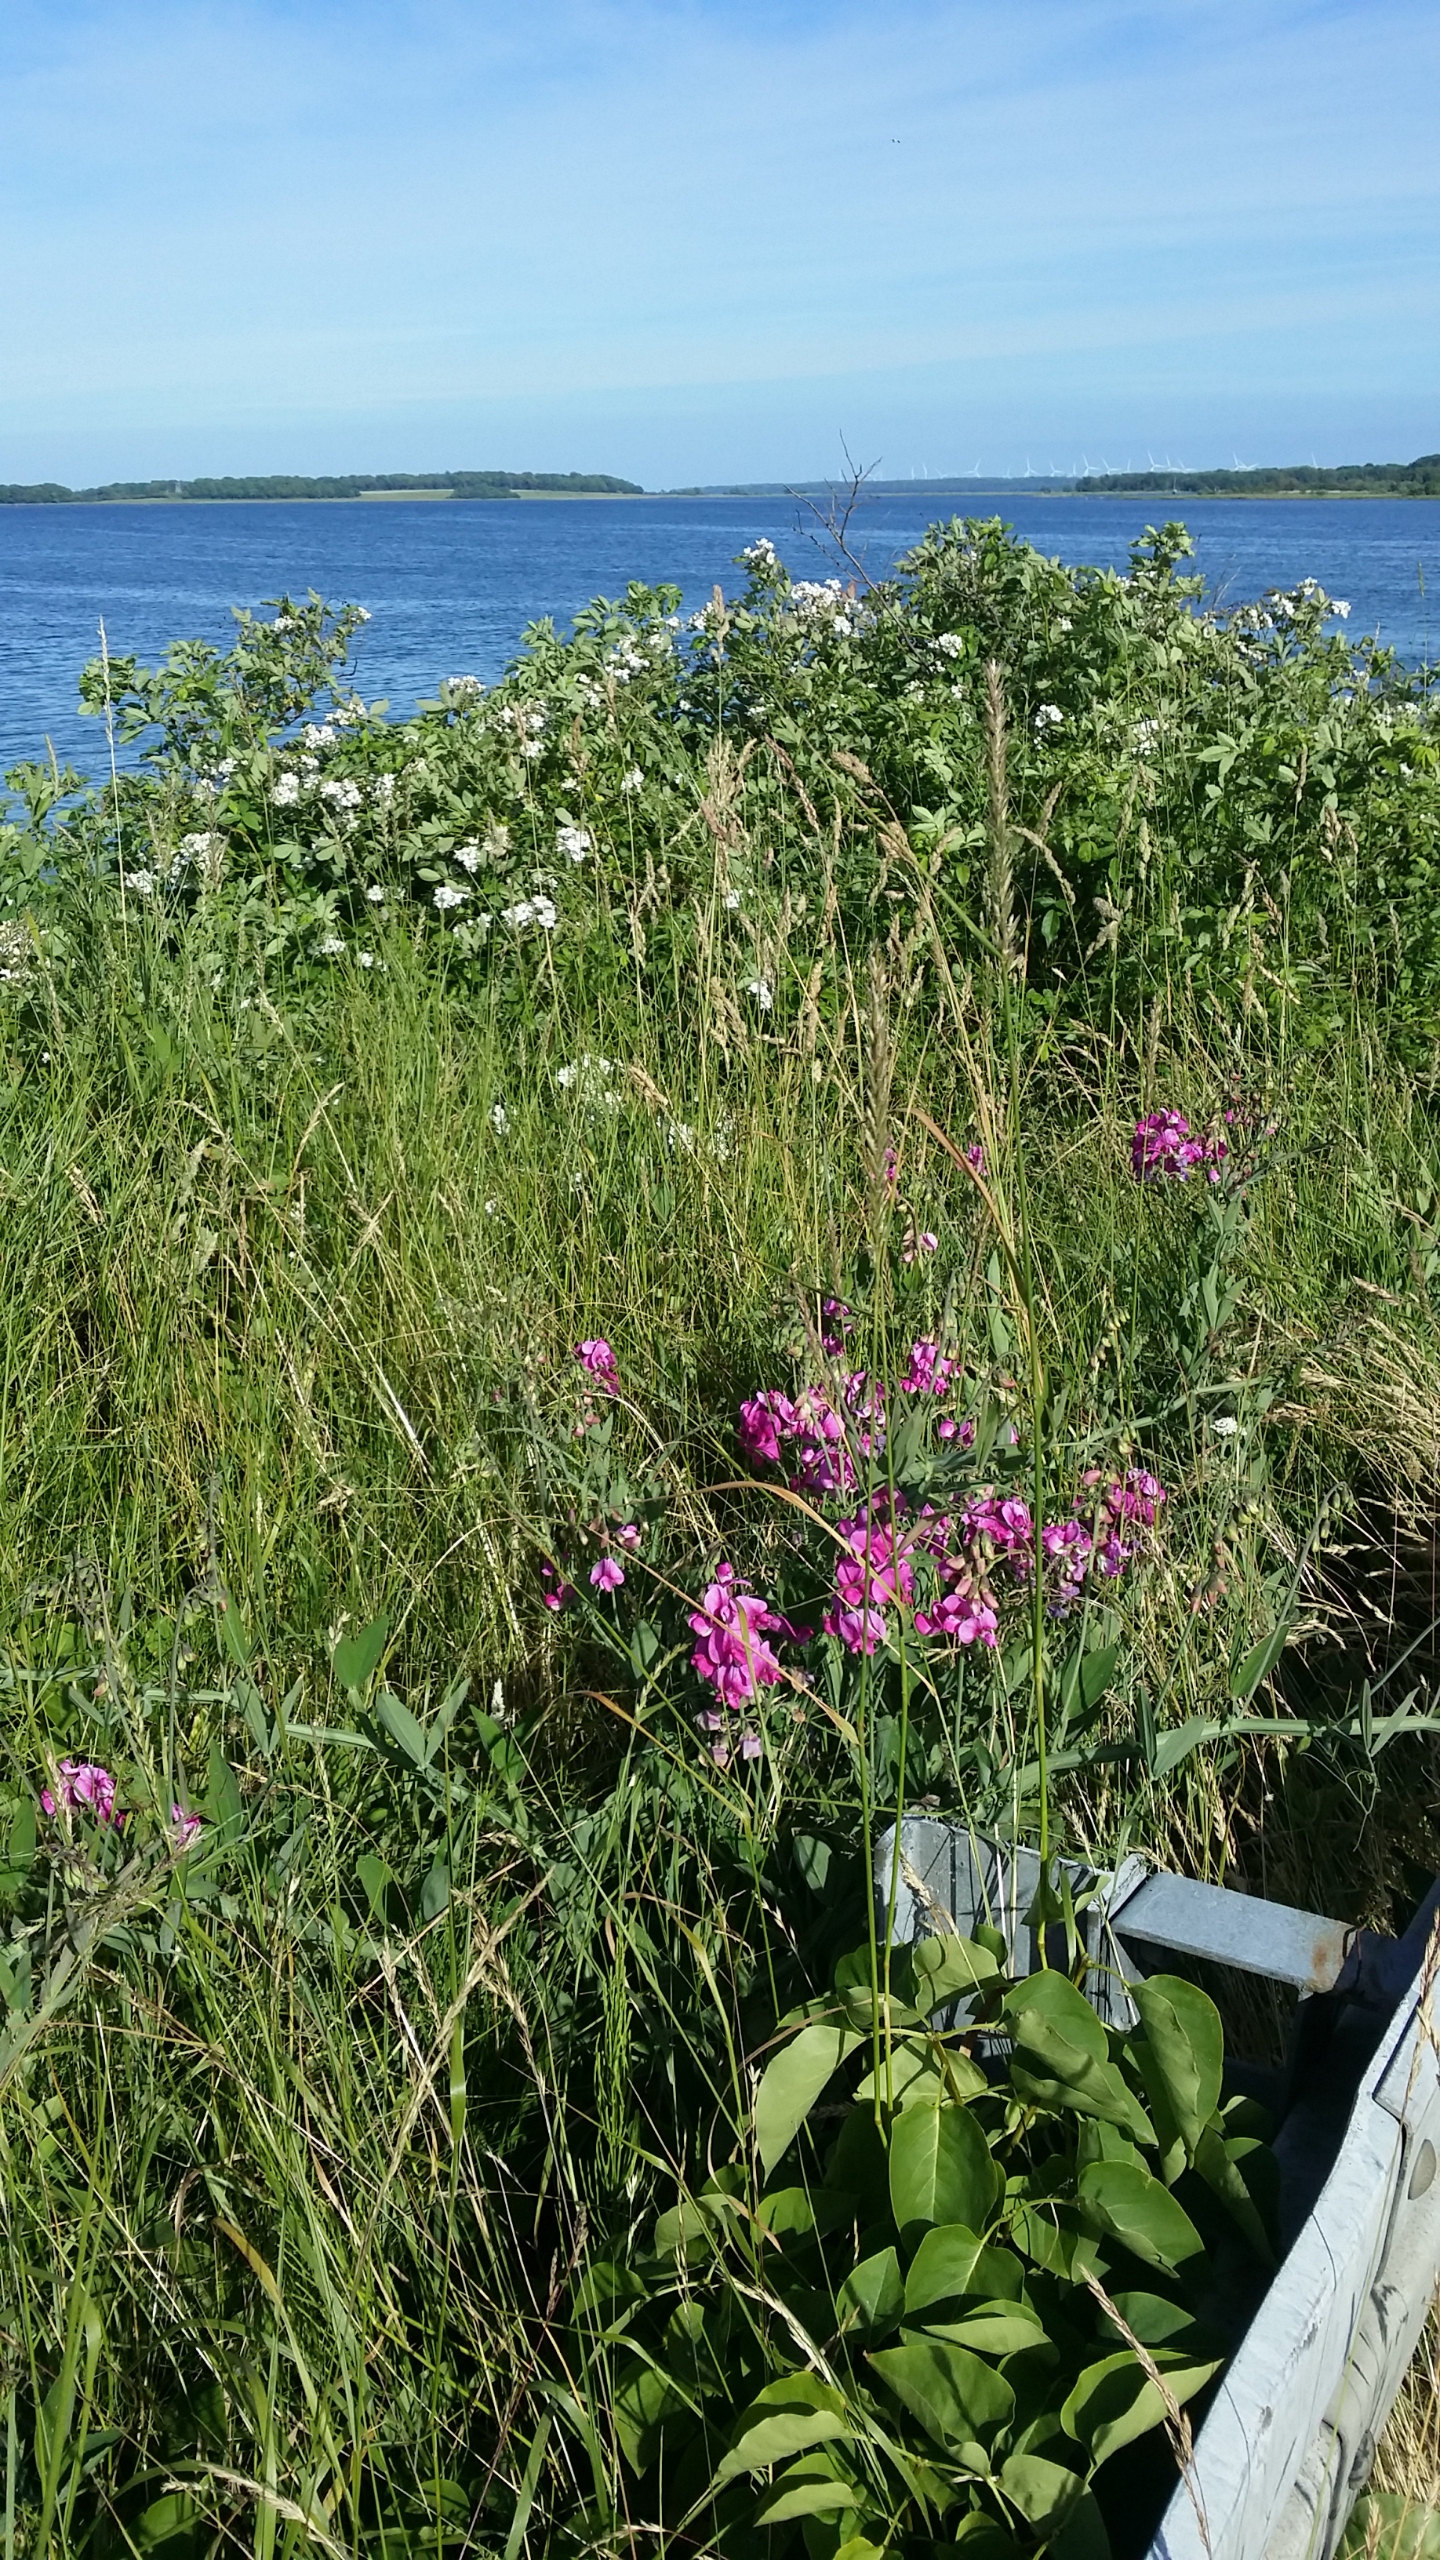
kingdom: Plantae
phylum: Tracheophyta
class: Magnoliopsida
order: Fabales
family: Fabaceae
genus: Lathyrus
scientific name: Lathyrus latifolius
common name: Flerårig ærteblomst
